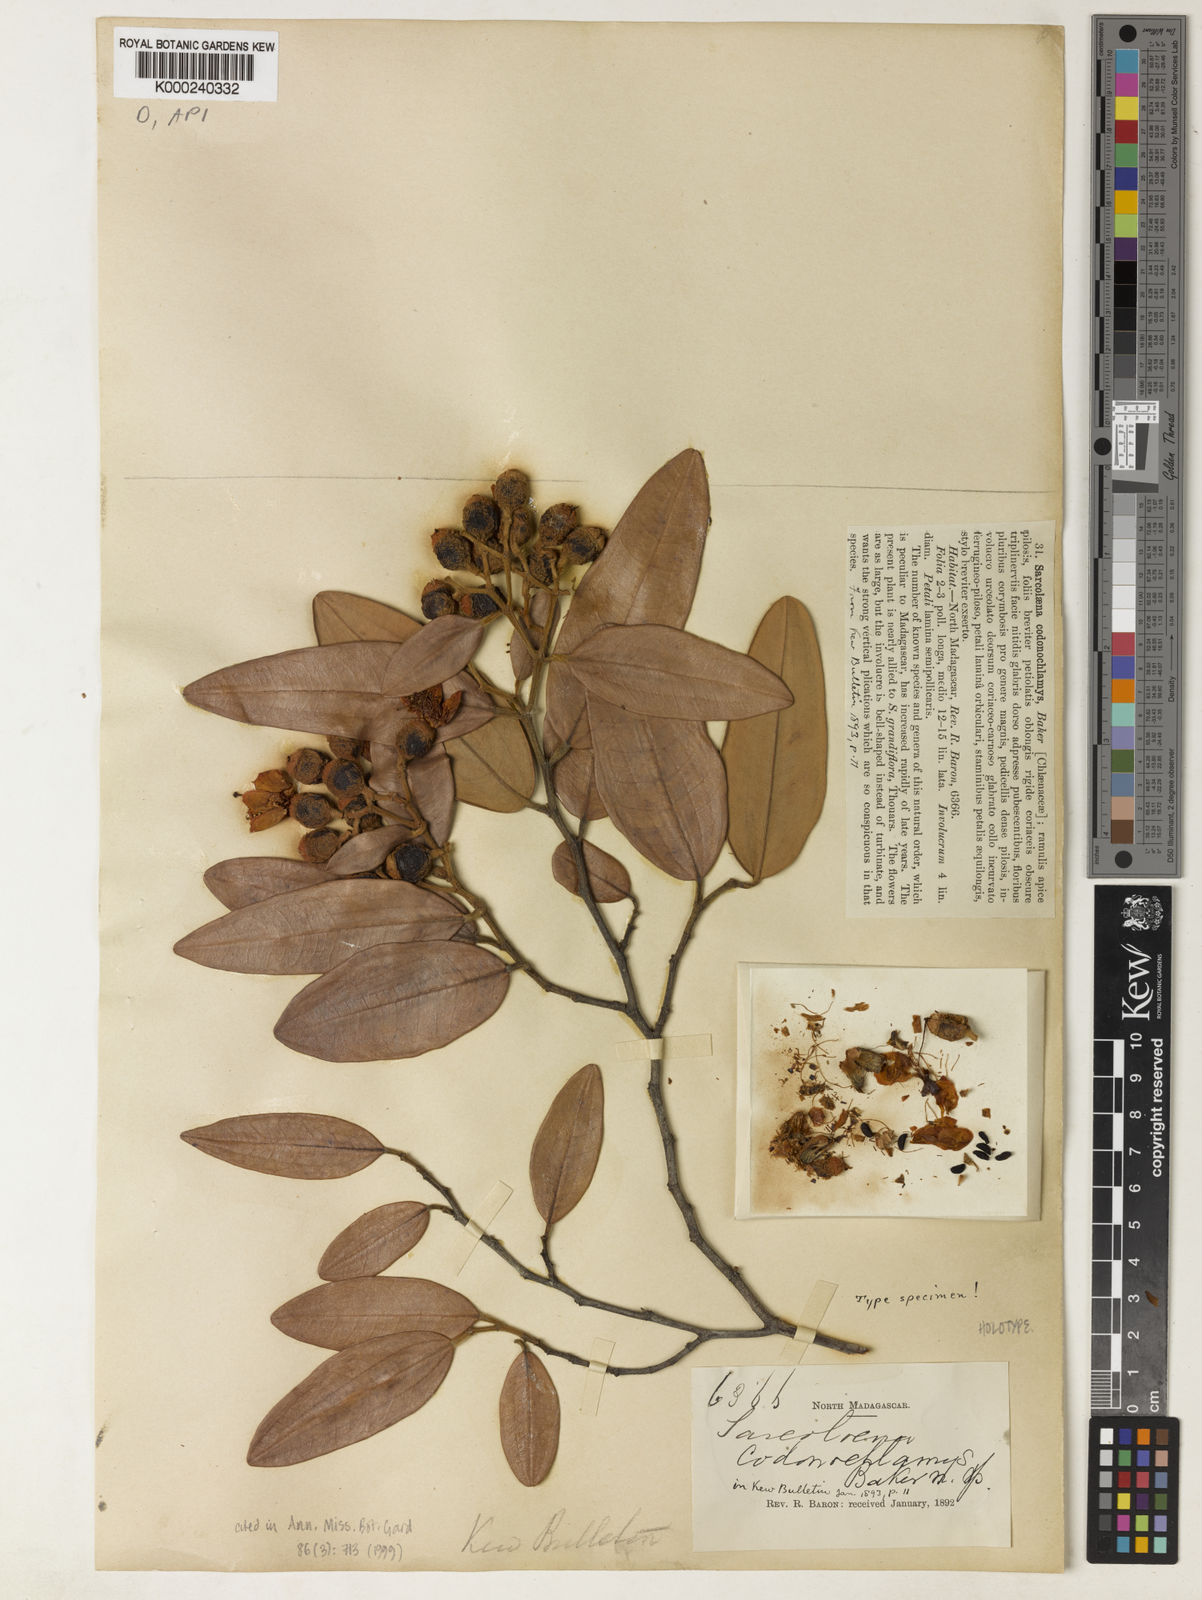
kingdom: Plantae
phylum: Tracheophyta
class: Magnoliopsida
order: Malvales
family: Sarcolaenaceae
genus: Sarcolaena
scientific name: Sarcolaena codonochlamys
